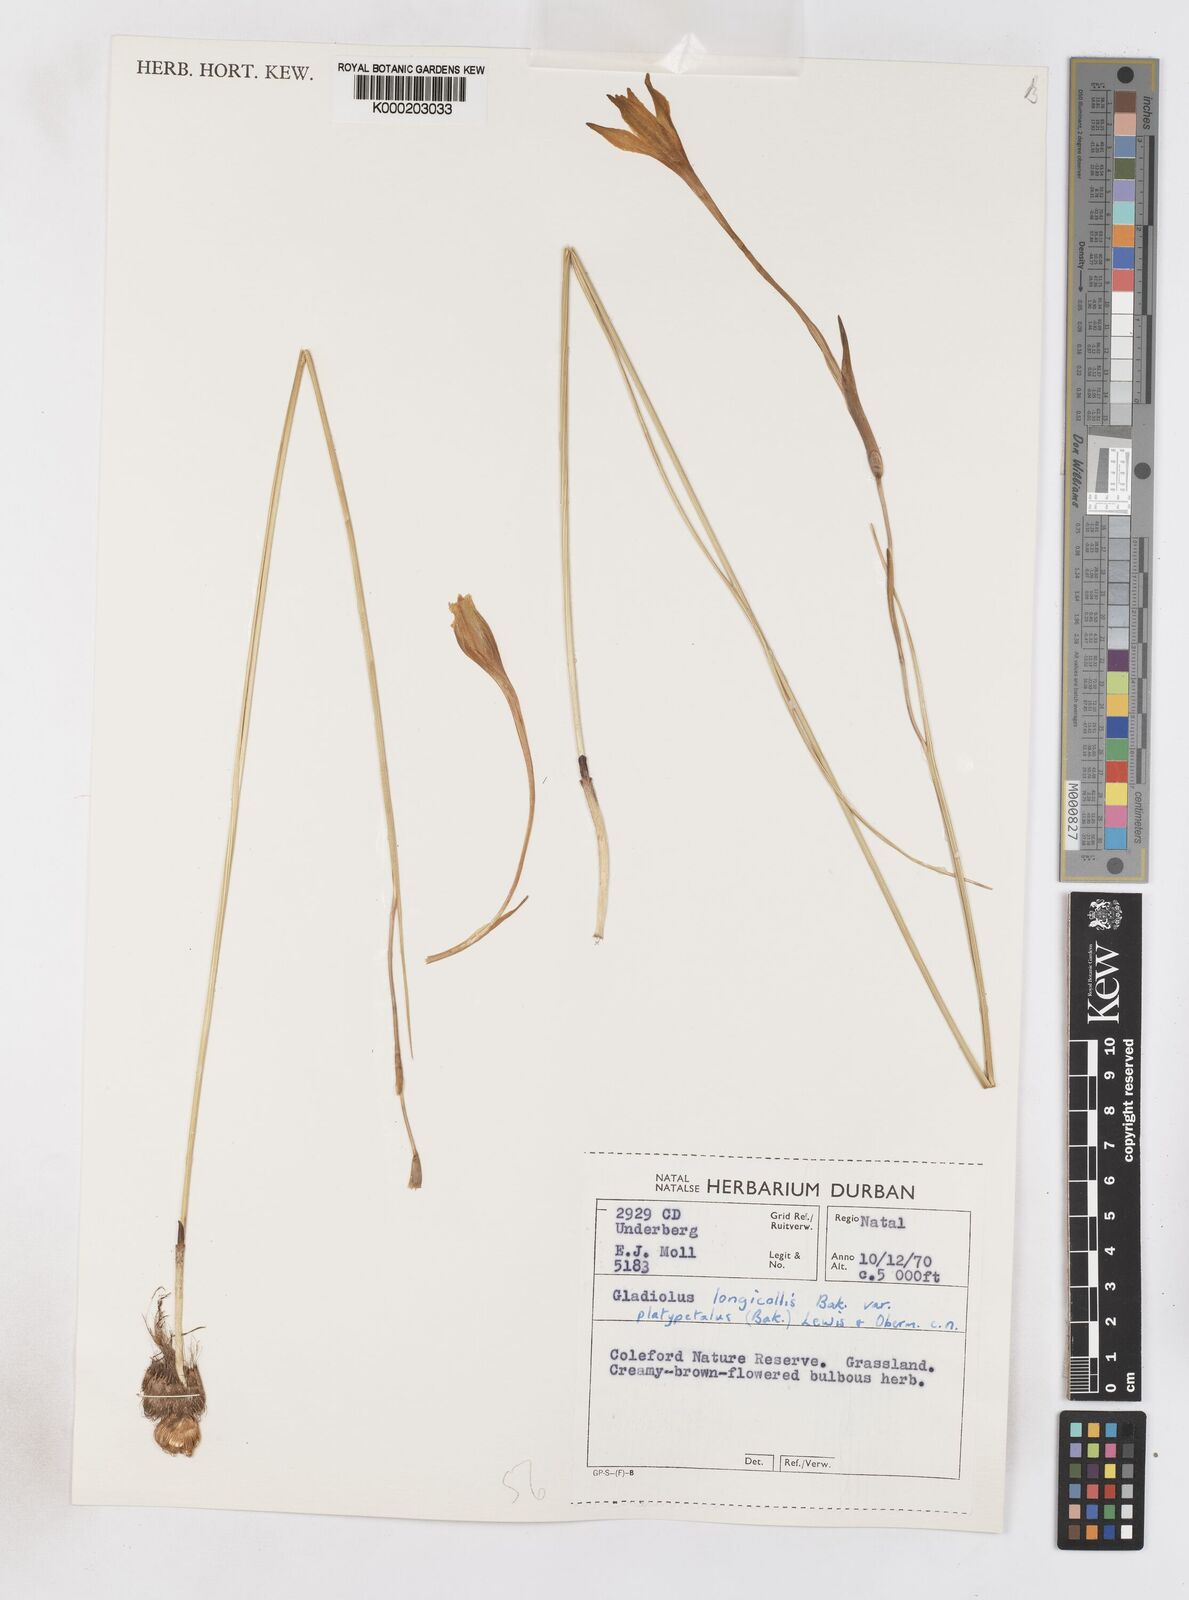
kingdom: Plantae
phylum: Tracheophyta
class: Liliopsida
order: Asparagales
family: Iridaceae
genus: Gladiolus
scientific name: Gladiolus longicollis
